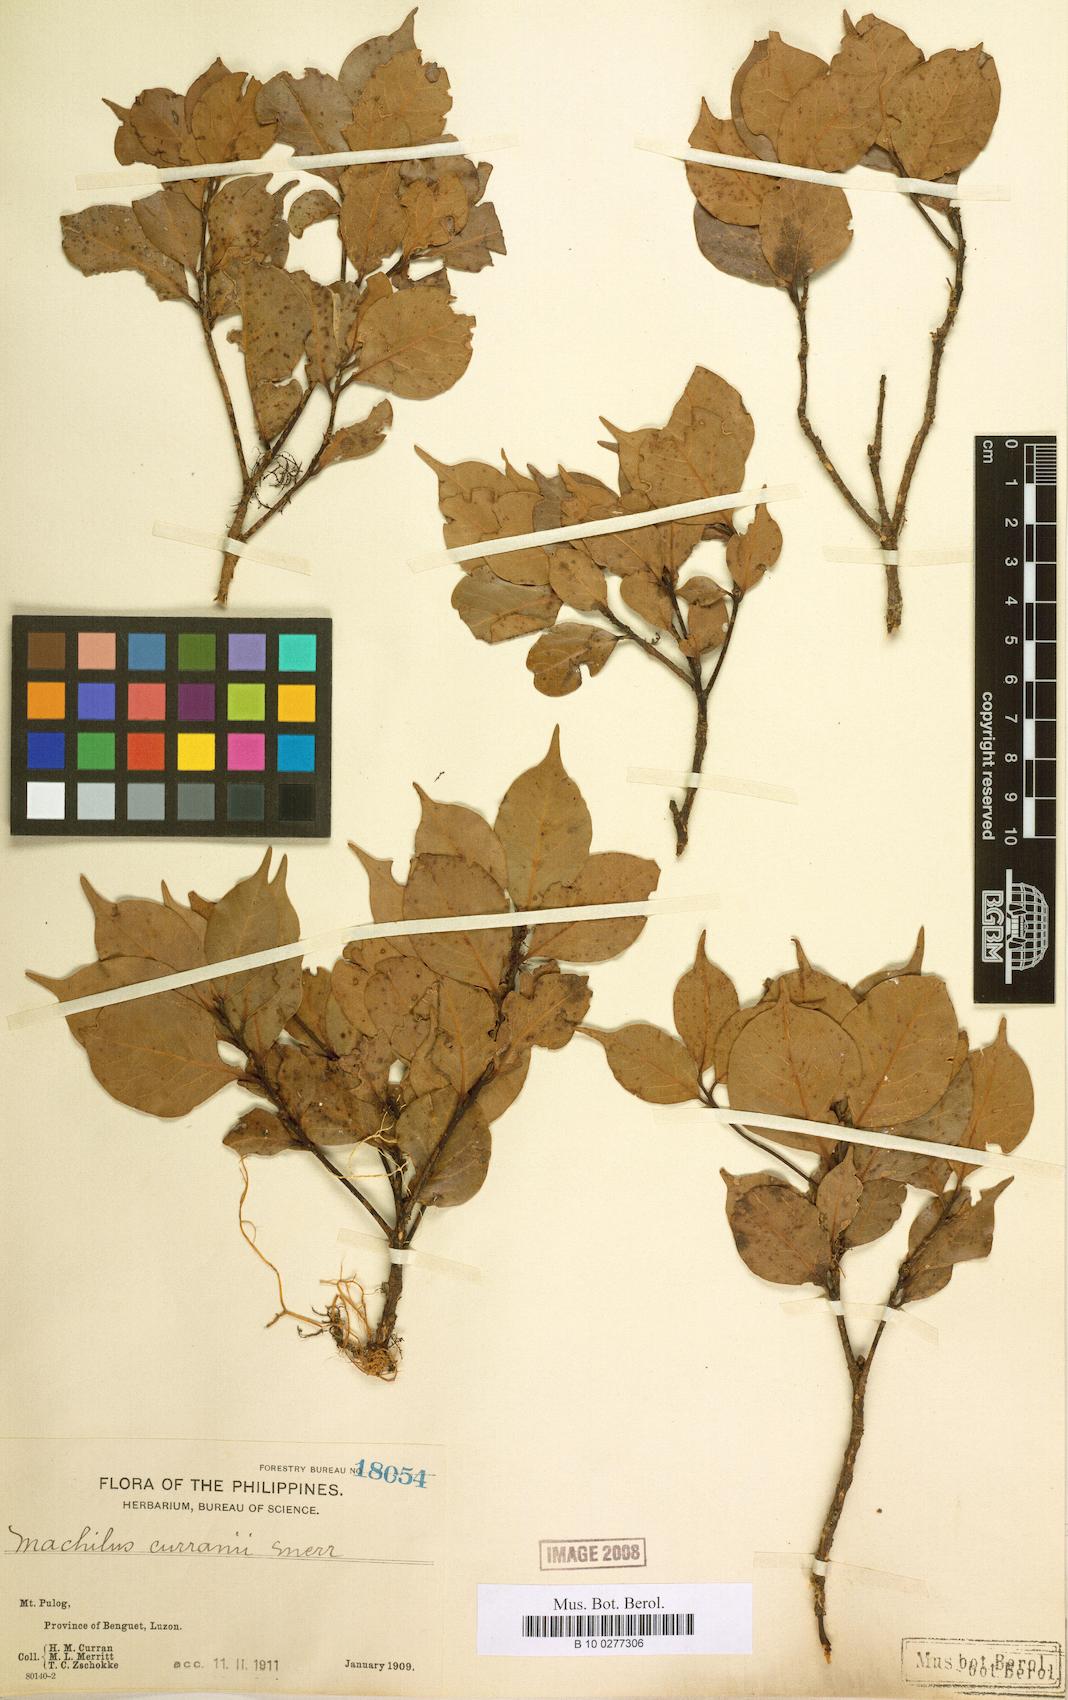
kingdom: Plantae
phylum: Tracheophyta
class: Magnoliopsida
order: Laurales
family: Lauraceae
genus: Machilus
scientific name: Machilus curranii
